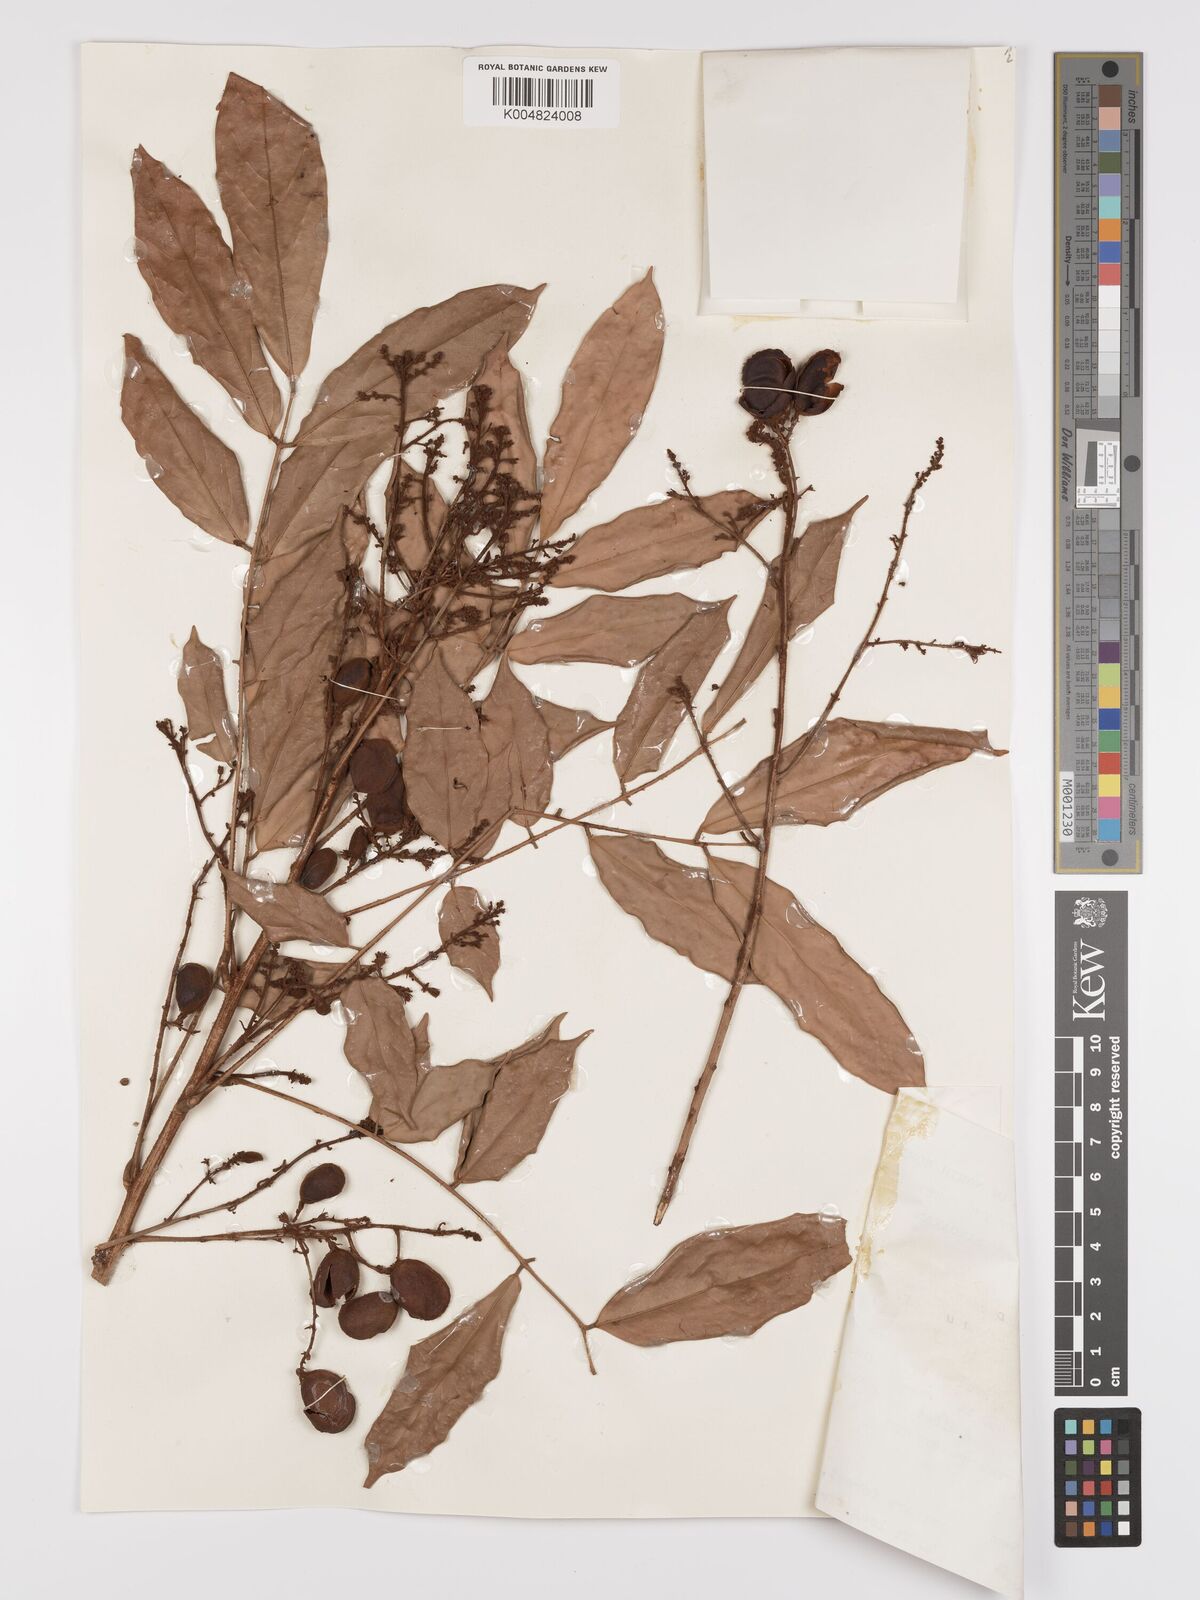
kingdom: Plantae
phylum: Tracheophyta
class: Magnoliopsida
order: Oxalidales
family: Connaraceae
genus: Connarus
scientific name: Connarus odoratus
